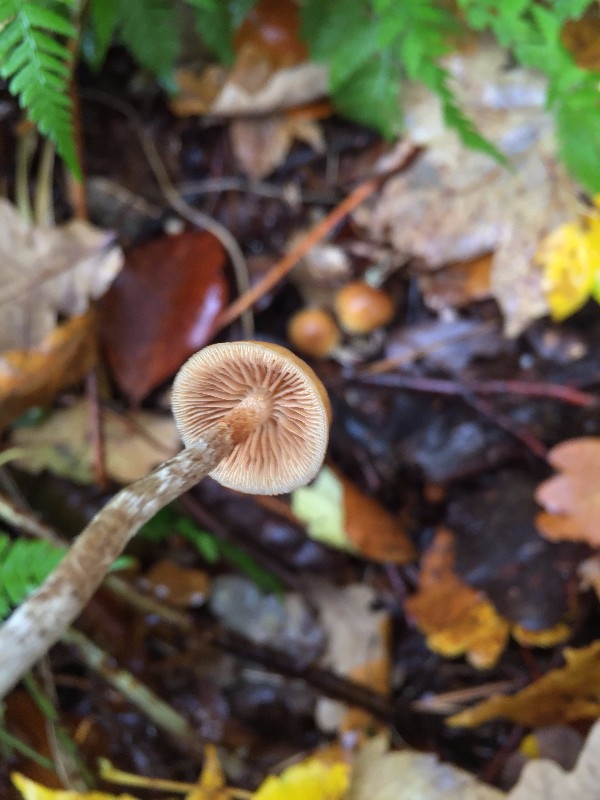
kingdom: Fungi
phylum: Basidiomycota
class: Agaricomycetes
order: Agaricales
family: Tubariaceae
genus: Tubaria
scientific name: Tubaria furfuracea
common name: kliddet fnughat
